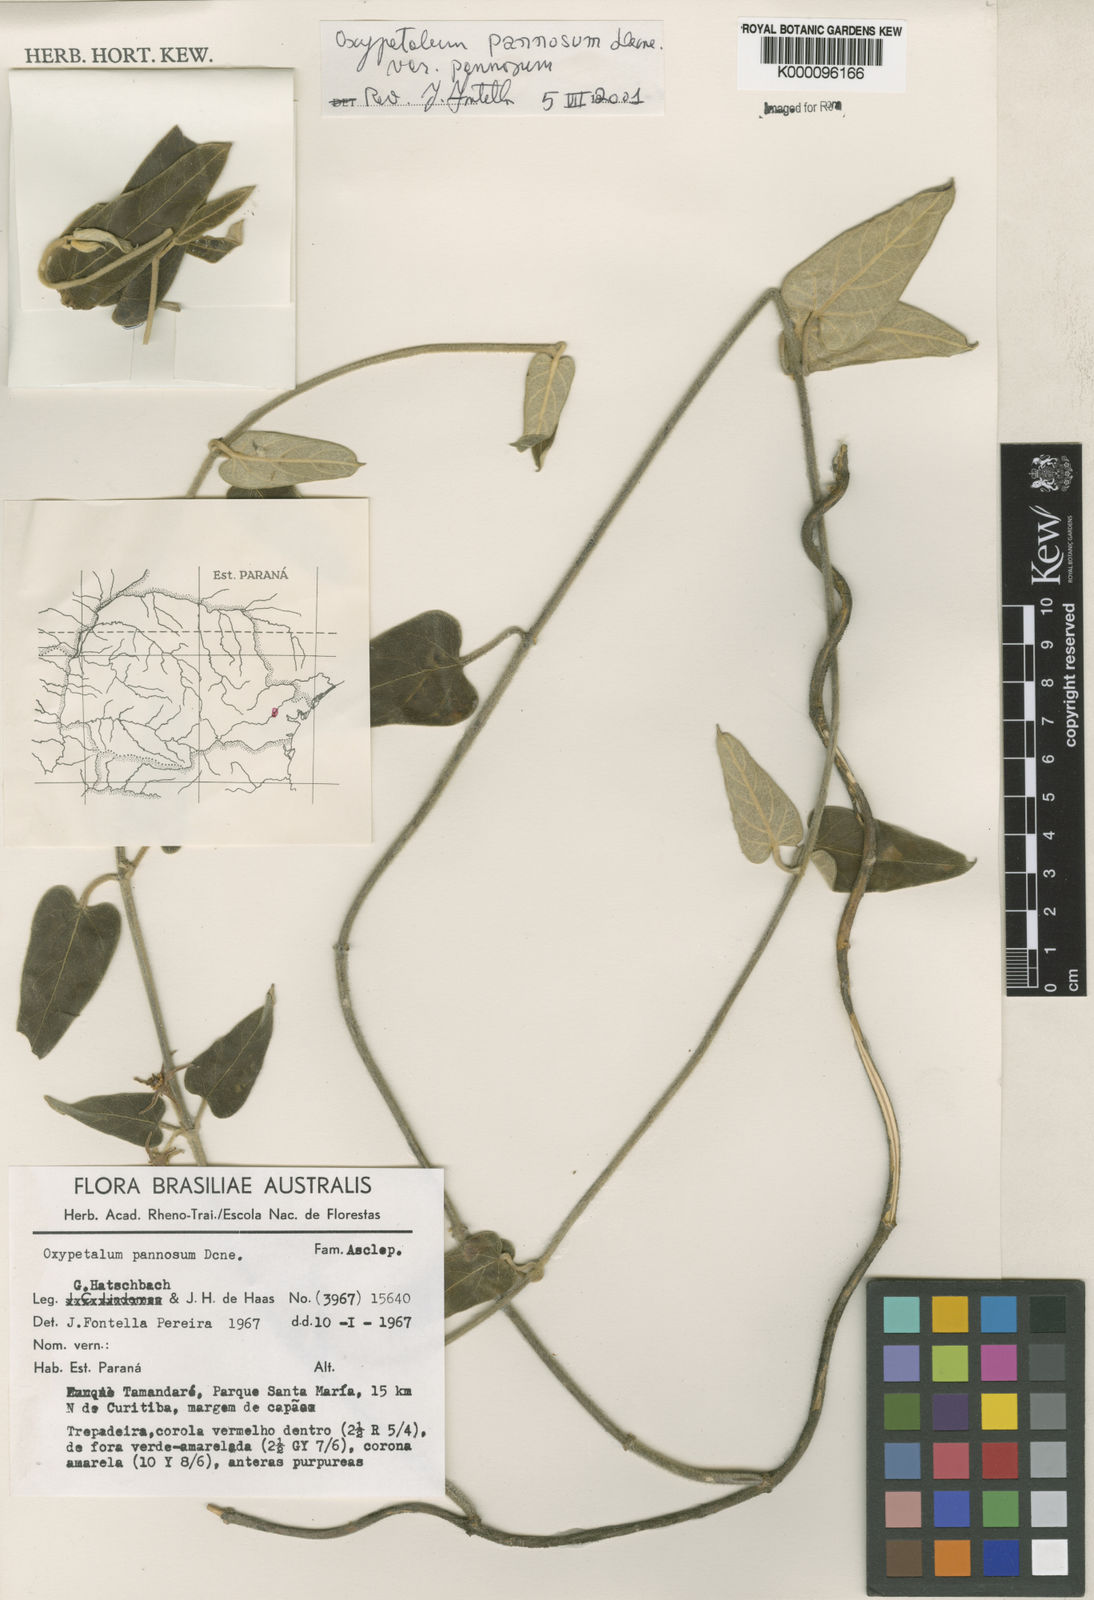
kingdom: Plantae
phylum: Tracheophyta
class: Magnoliopsida
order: Gentianales
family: Apocynaceae
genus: Oxypetalum
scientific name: Oxypetalum pannosum
